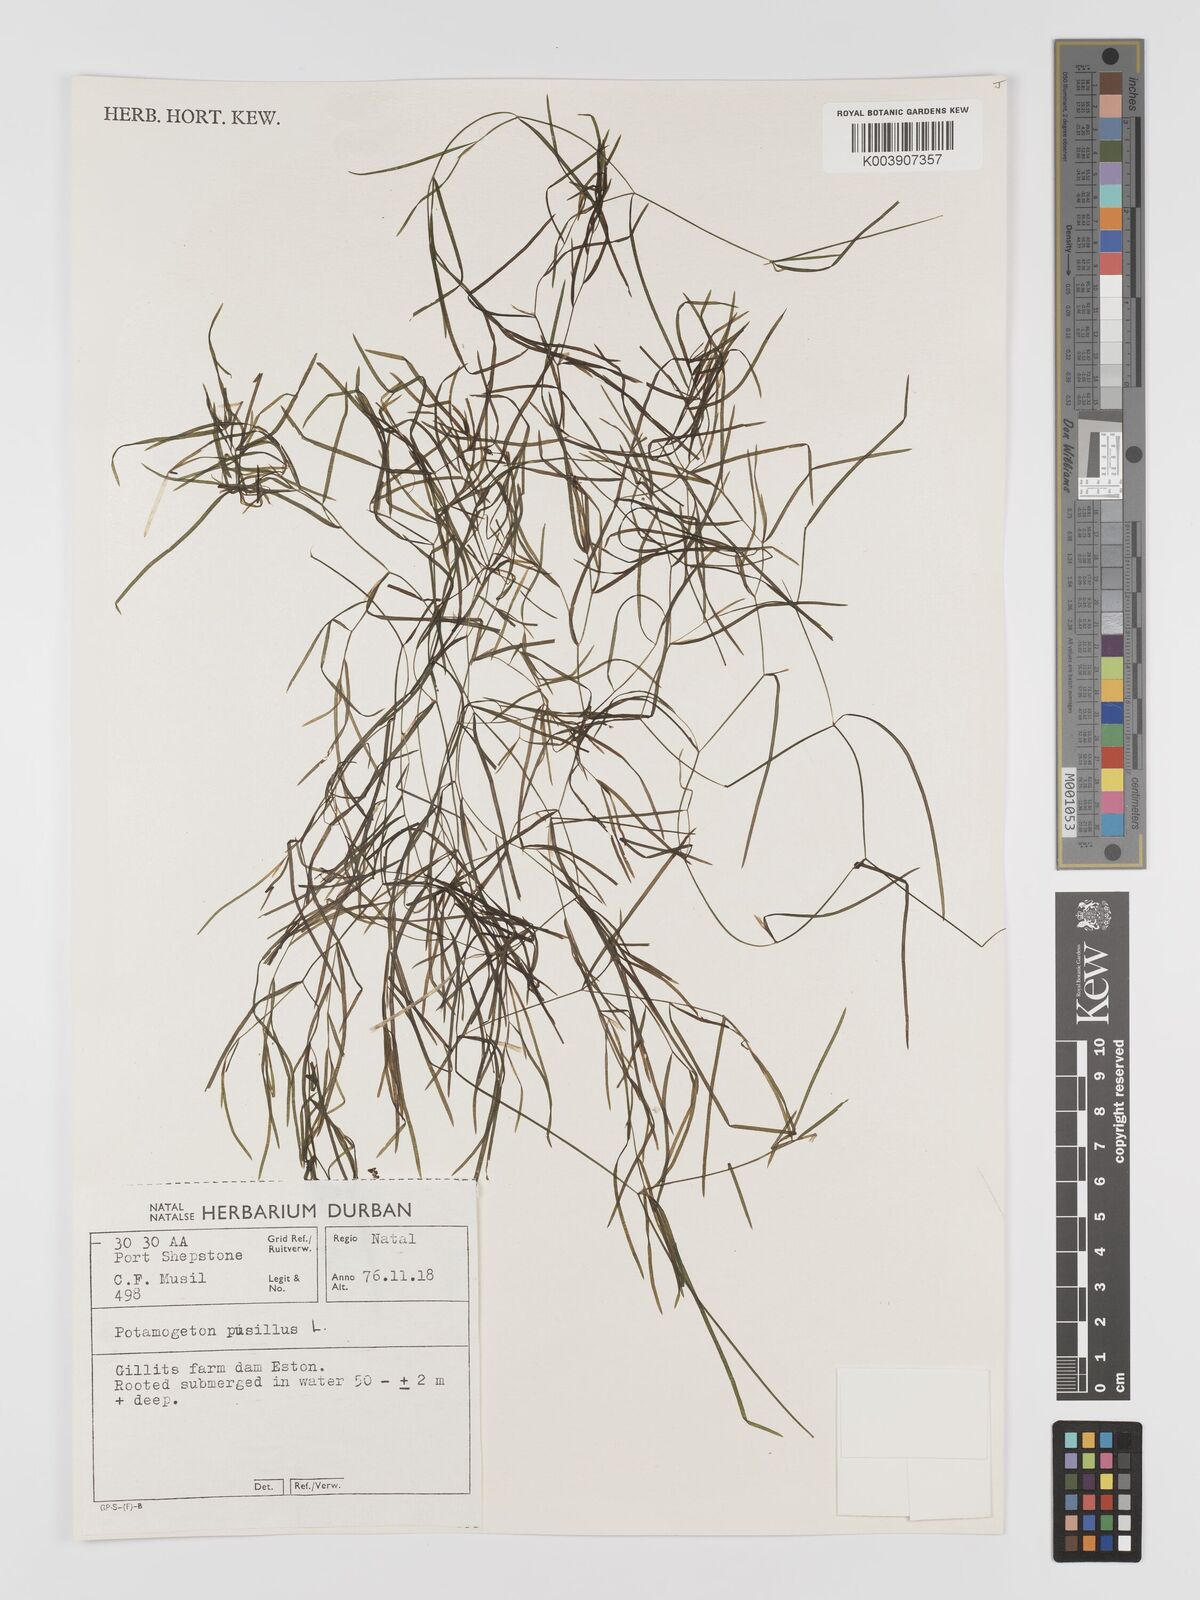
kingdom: Plantae
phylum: Tracheophyta
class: Liliopsida
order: Alismatales
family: Potamogetonaceae
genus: Potamogeton
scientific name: Potamogeton pusillus
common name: Lesser pondweed
